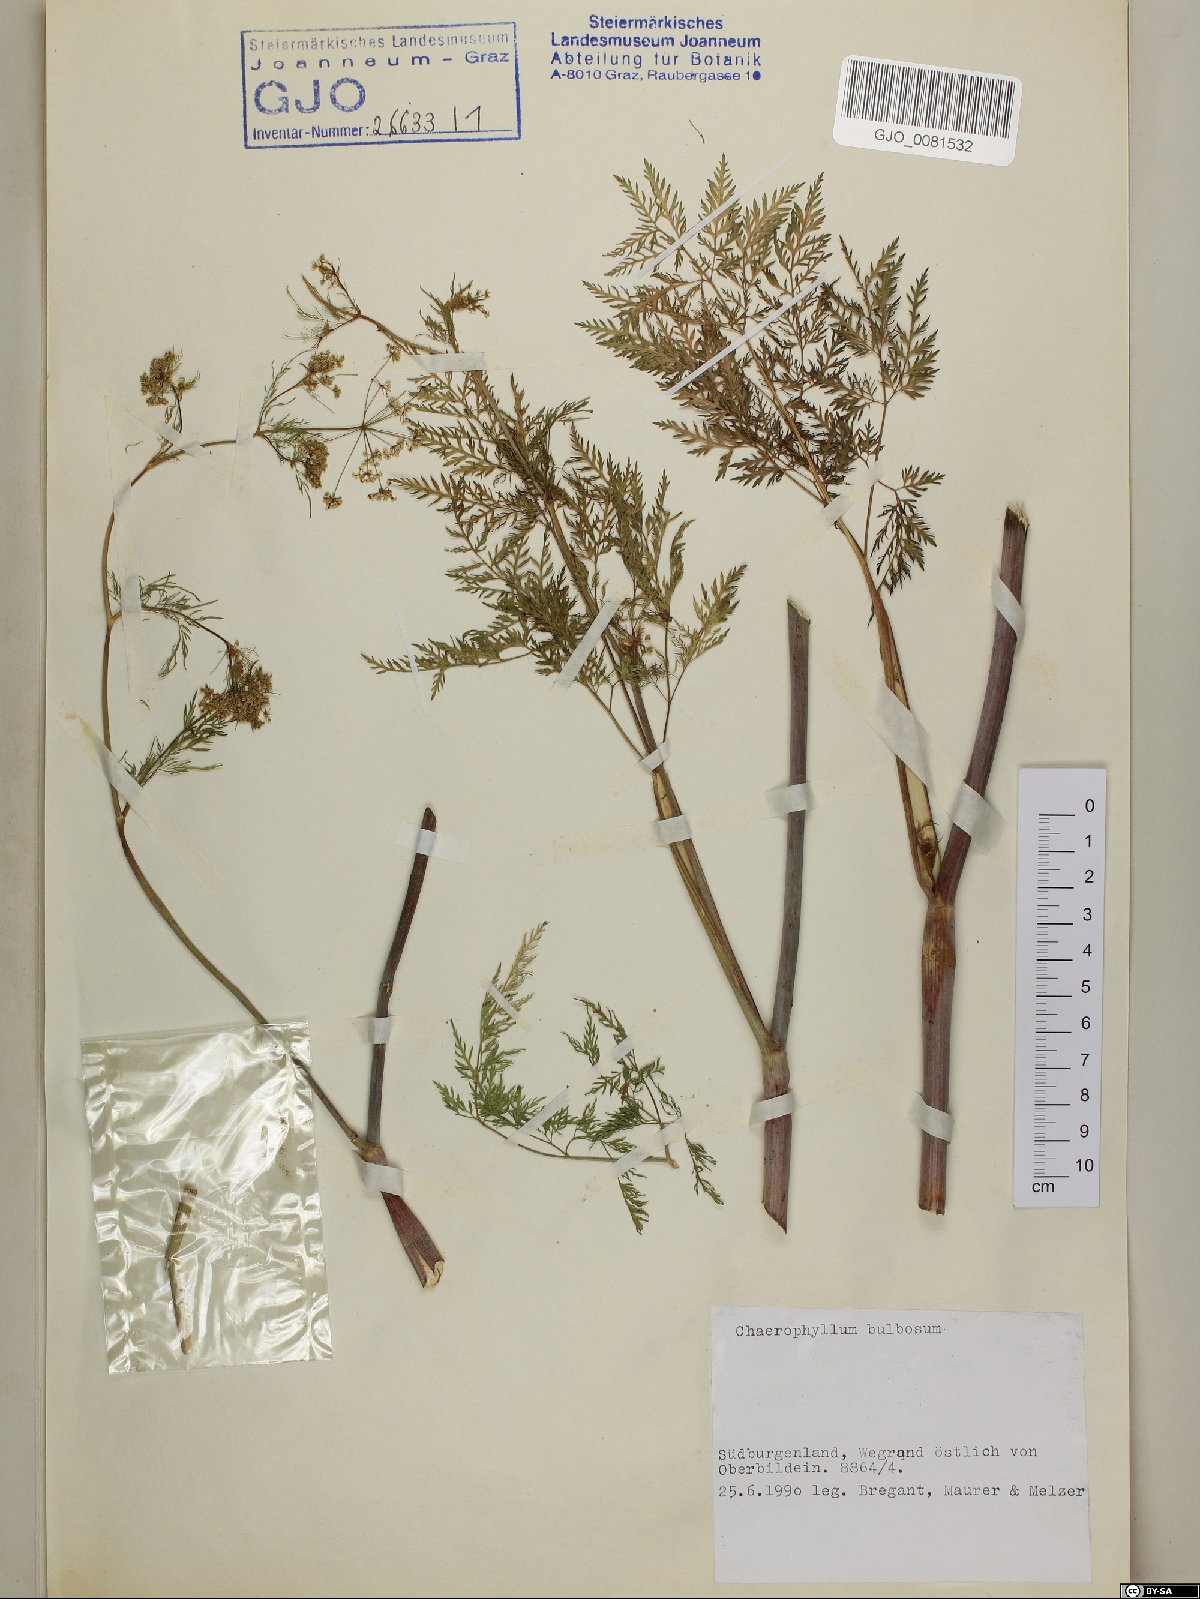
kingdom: Plantae
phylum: Tracheophyta
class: Magnoliopsida
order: Apiales
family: Apiaceae
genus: Chaerophyllum
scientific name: Chaerophyllum bulbosum
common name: Bulbous chervil
